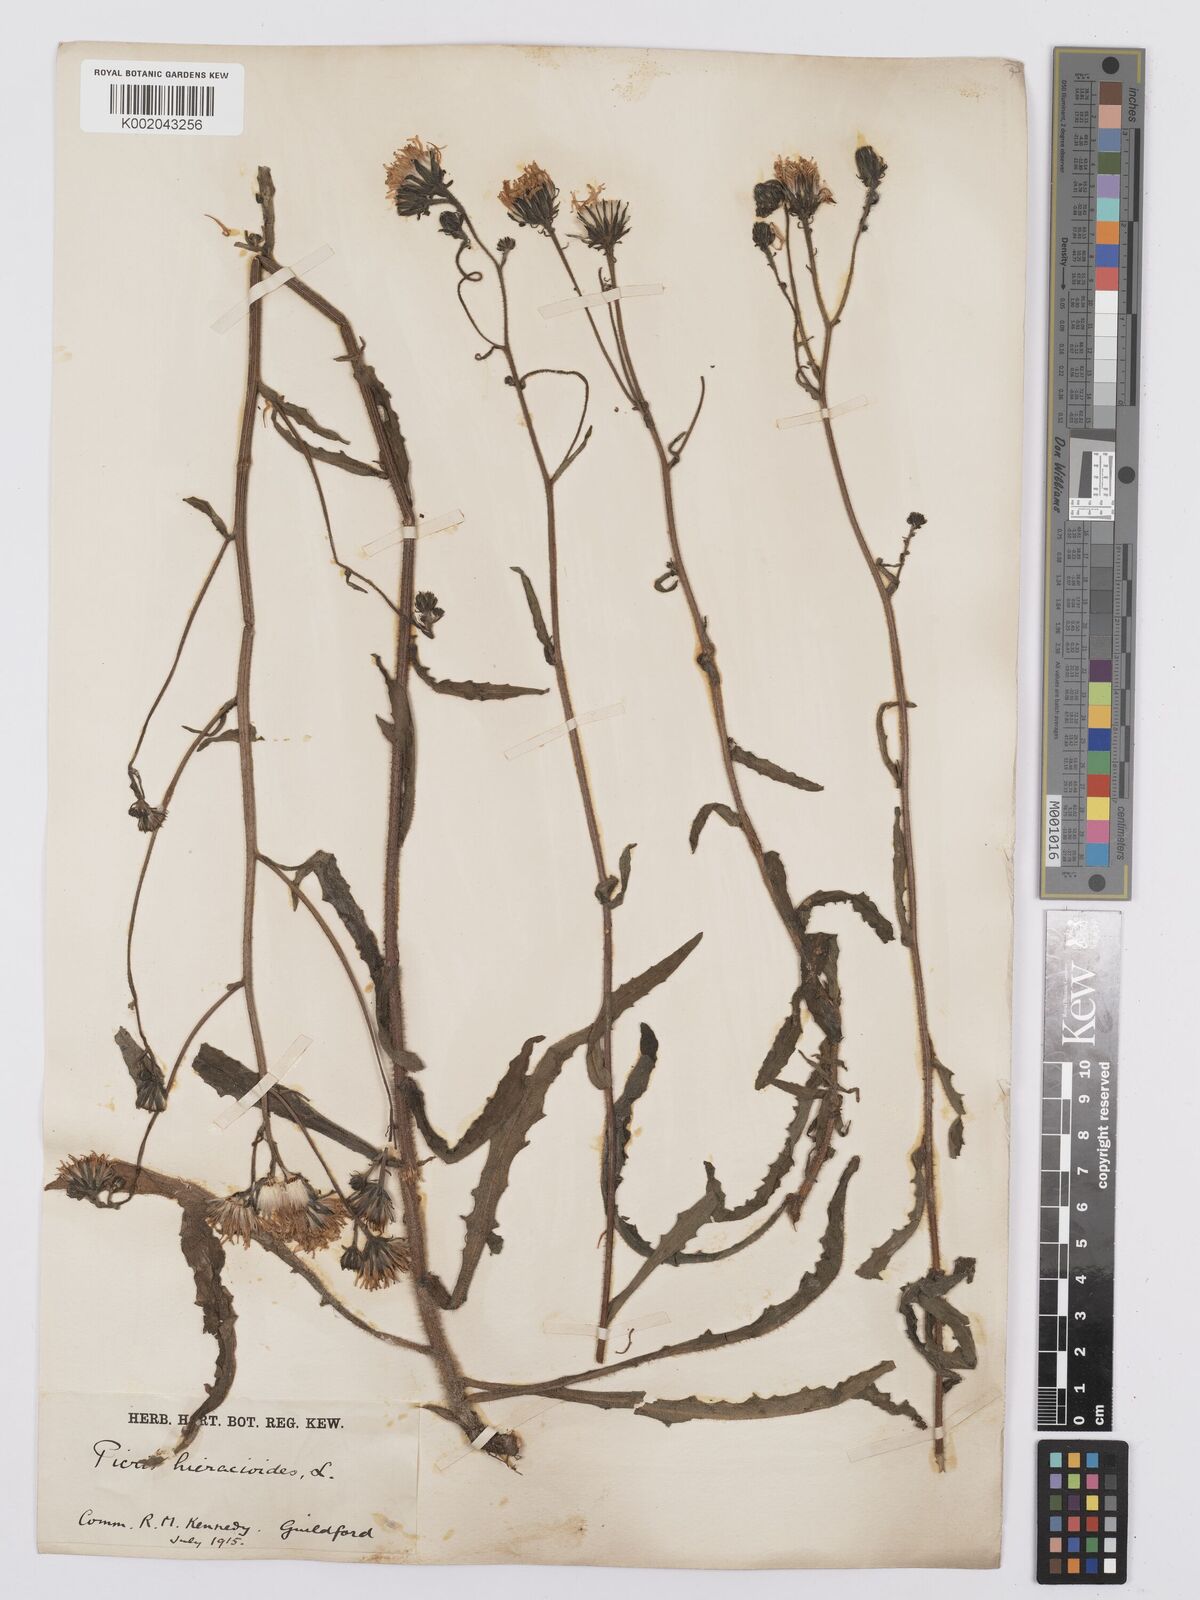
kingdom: Plantae
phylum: Tracheophyta
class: Magnoliopsida
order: Asterales
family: Asteraceae
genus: Picris
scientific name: Picris hieracioides
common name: Hawkweed oxtongue
